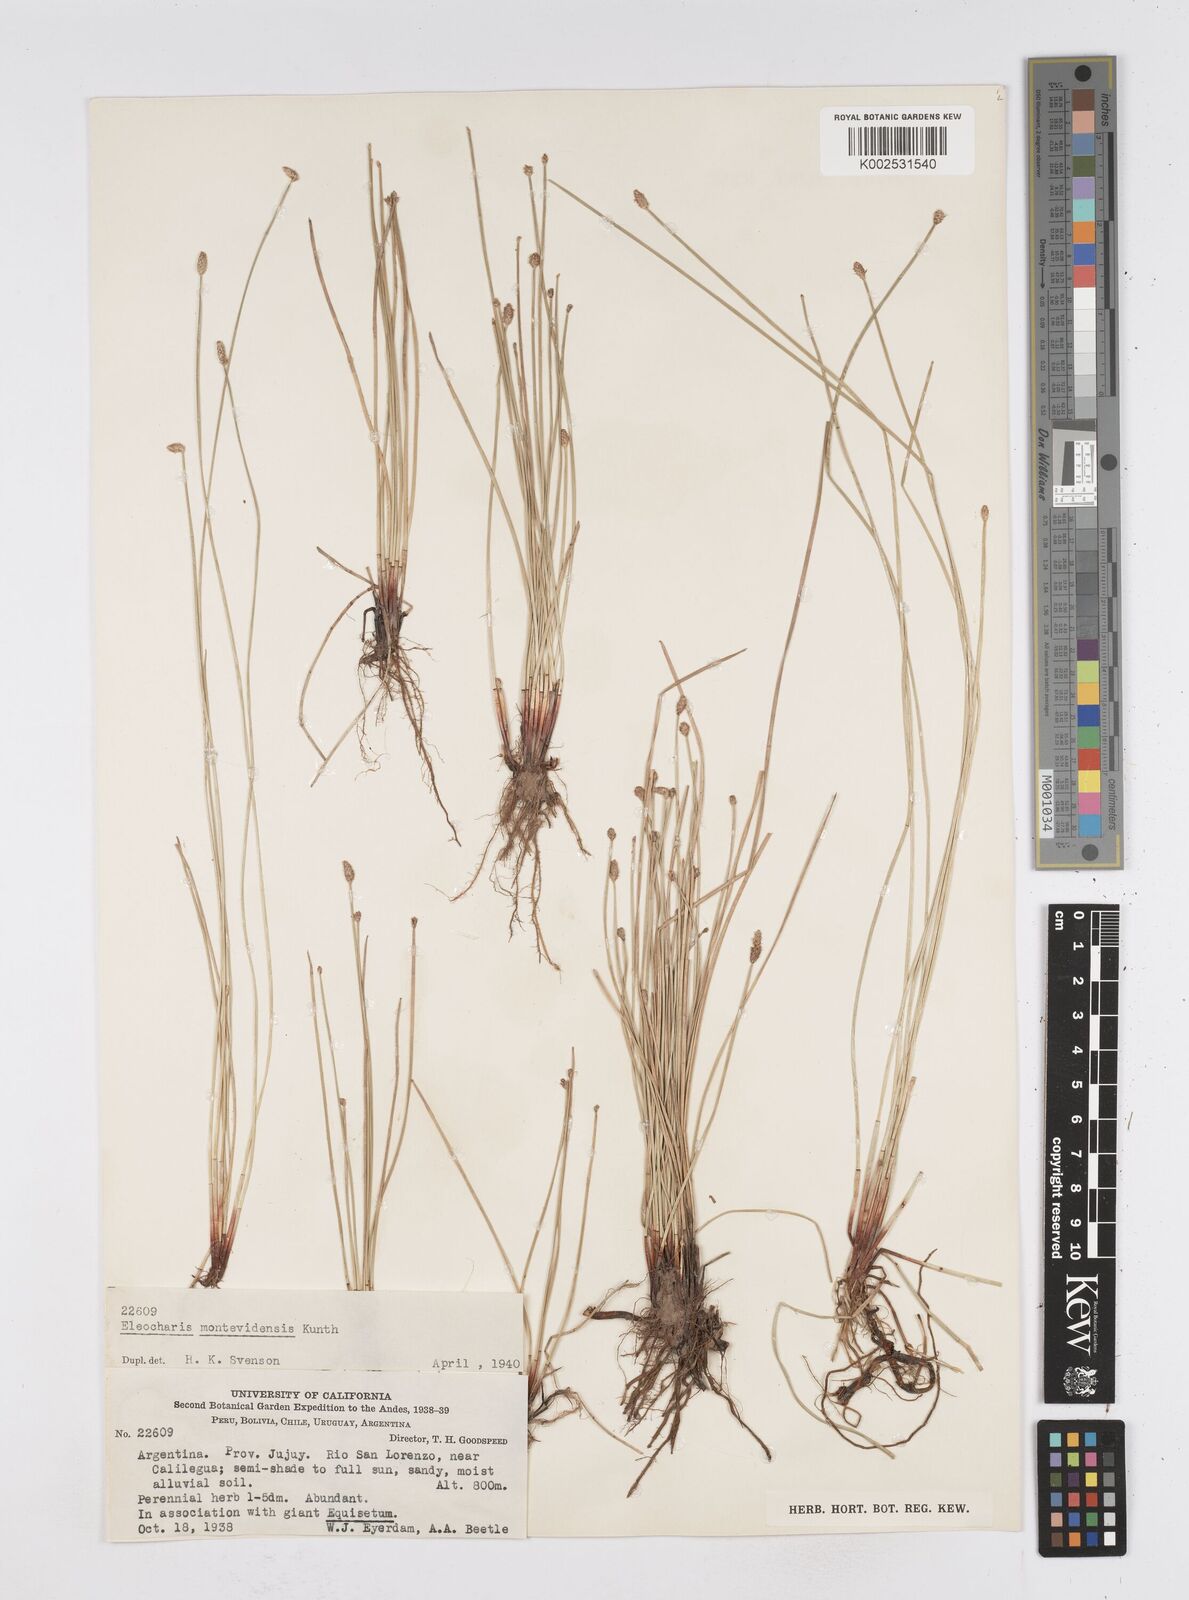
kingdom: Plantae
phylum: Tracheophyta
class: Liliopsida
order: Poales
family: Cyperaceae
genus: Eleocharis
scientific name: Eleocharis montevidensis
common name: Sand spike-rush
